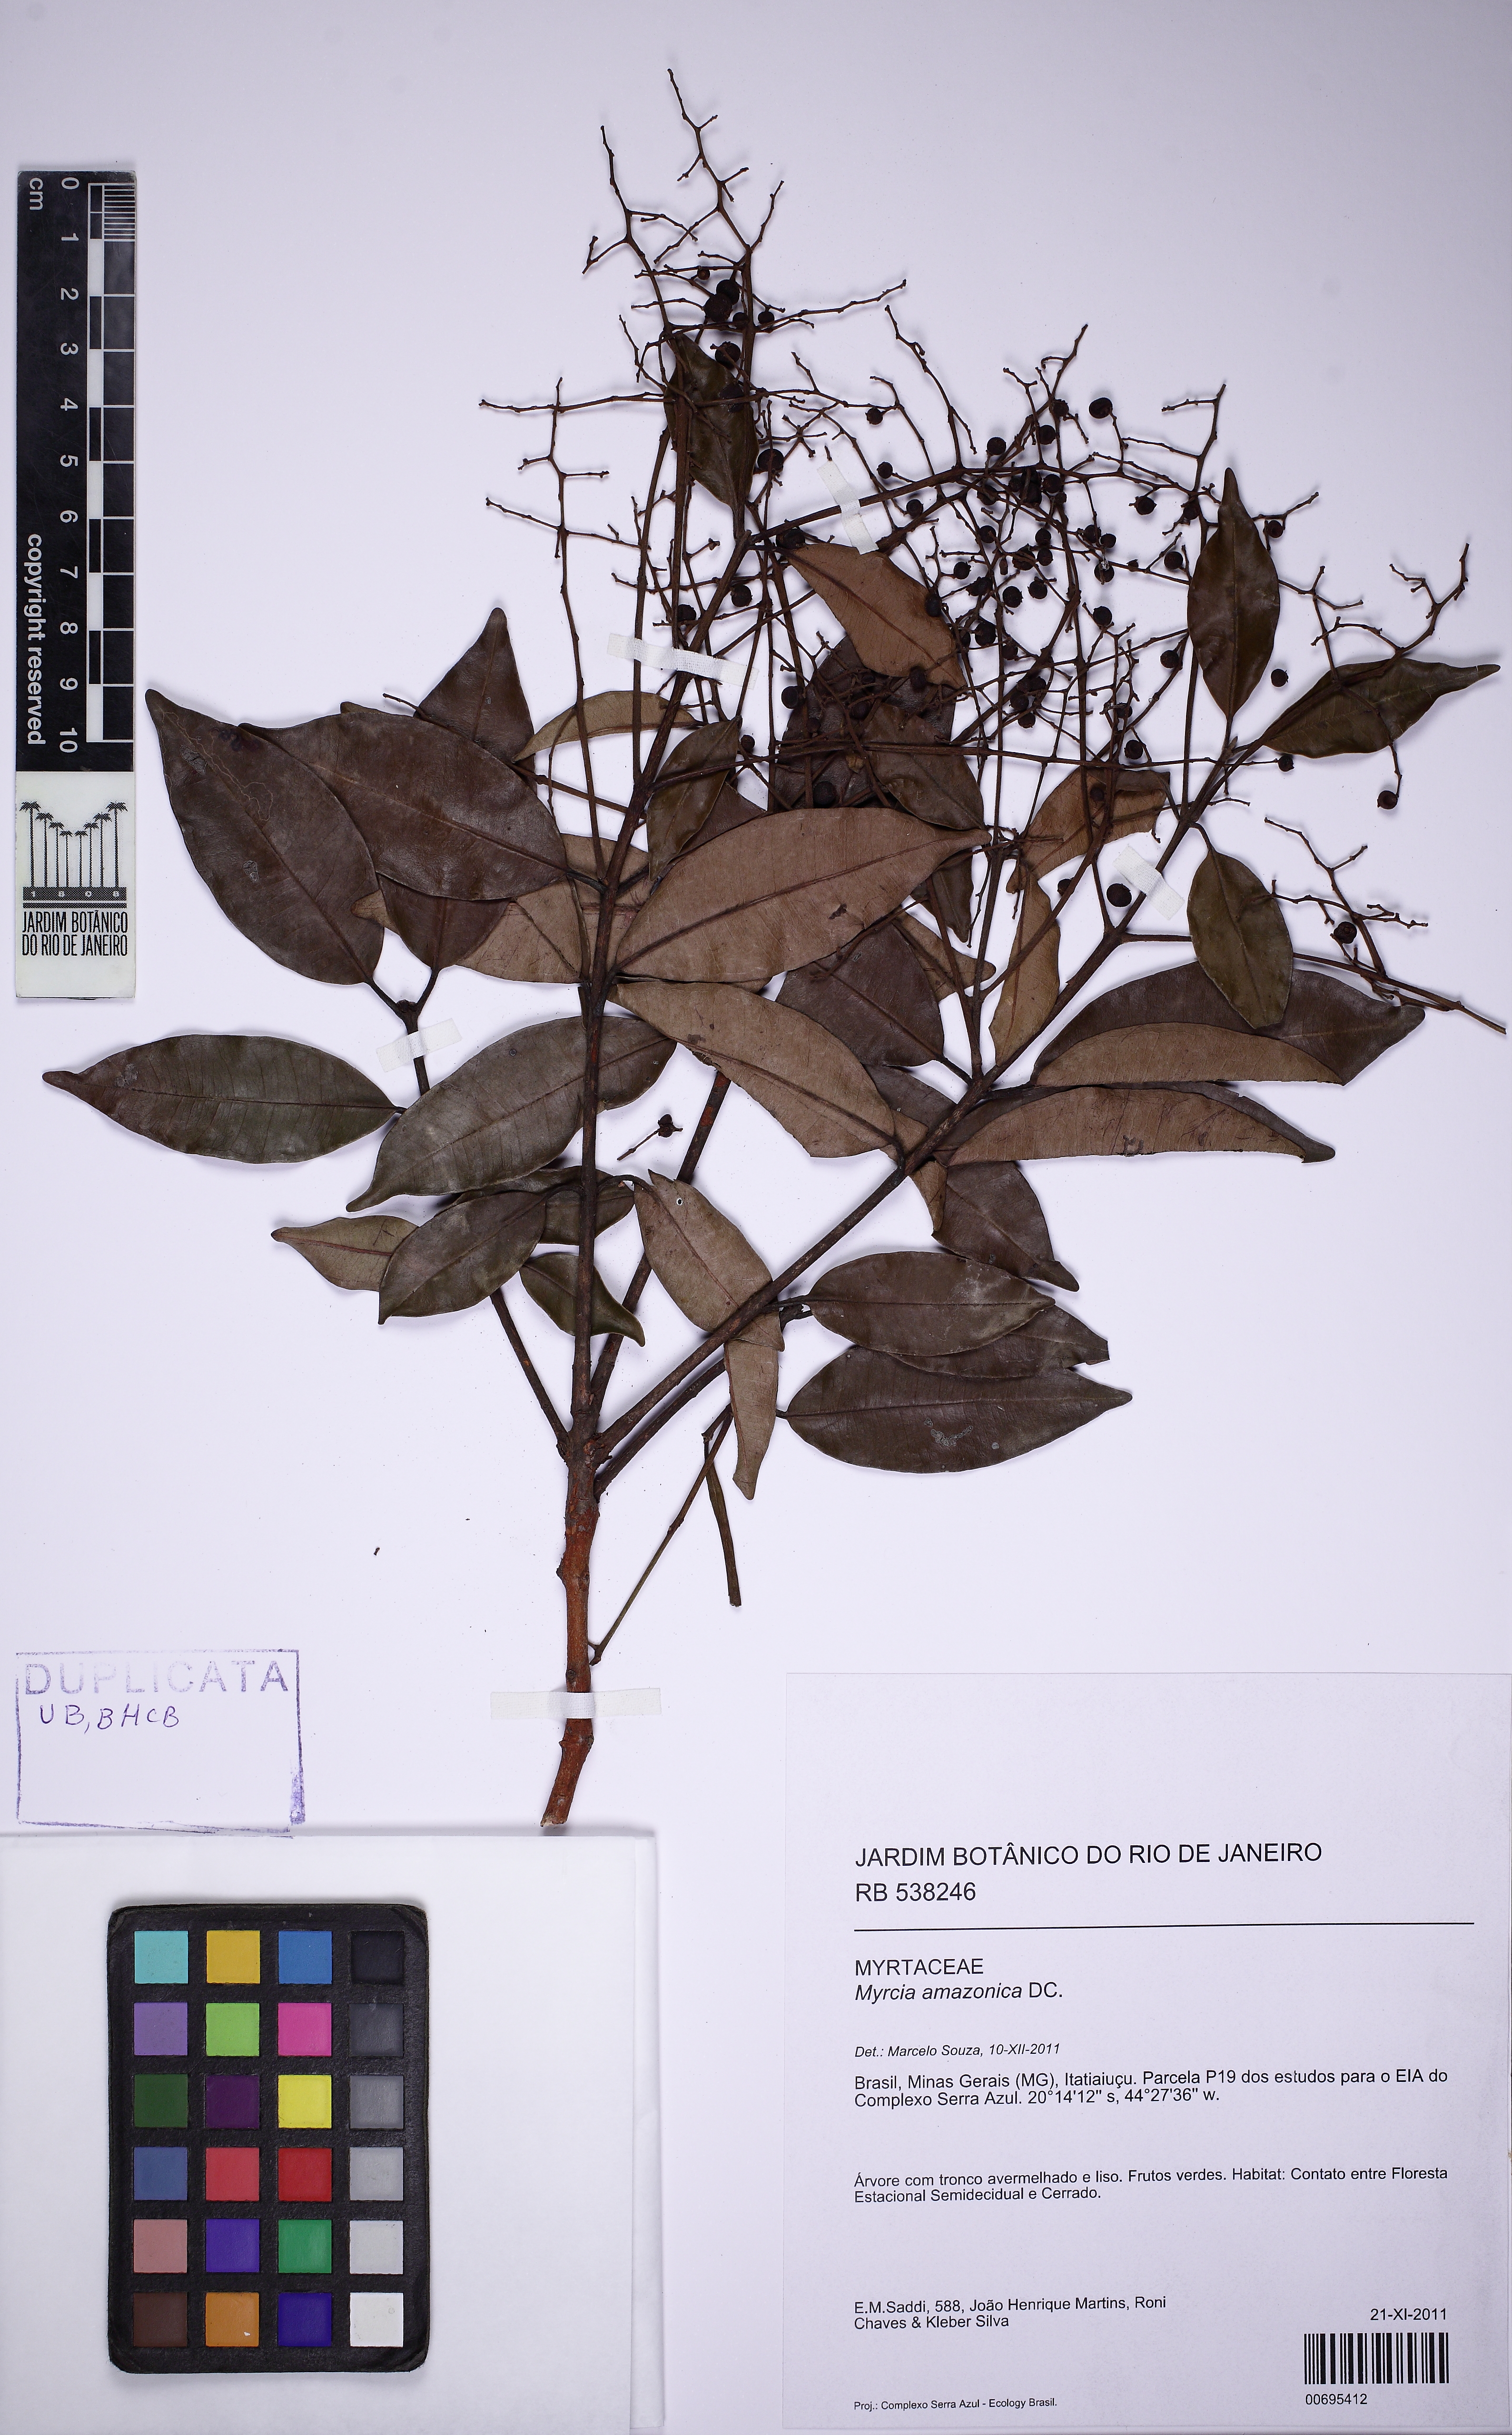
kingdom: Plantae
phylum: Tracheophyta
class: Magnoliopsida
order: Myrtales
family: Myrtaceae
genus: Myrcia
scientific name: Myrcia amazonica
